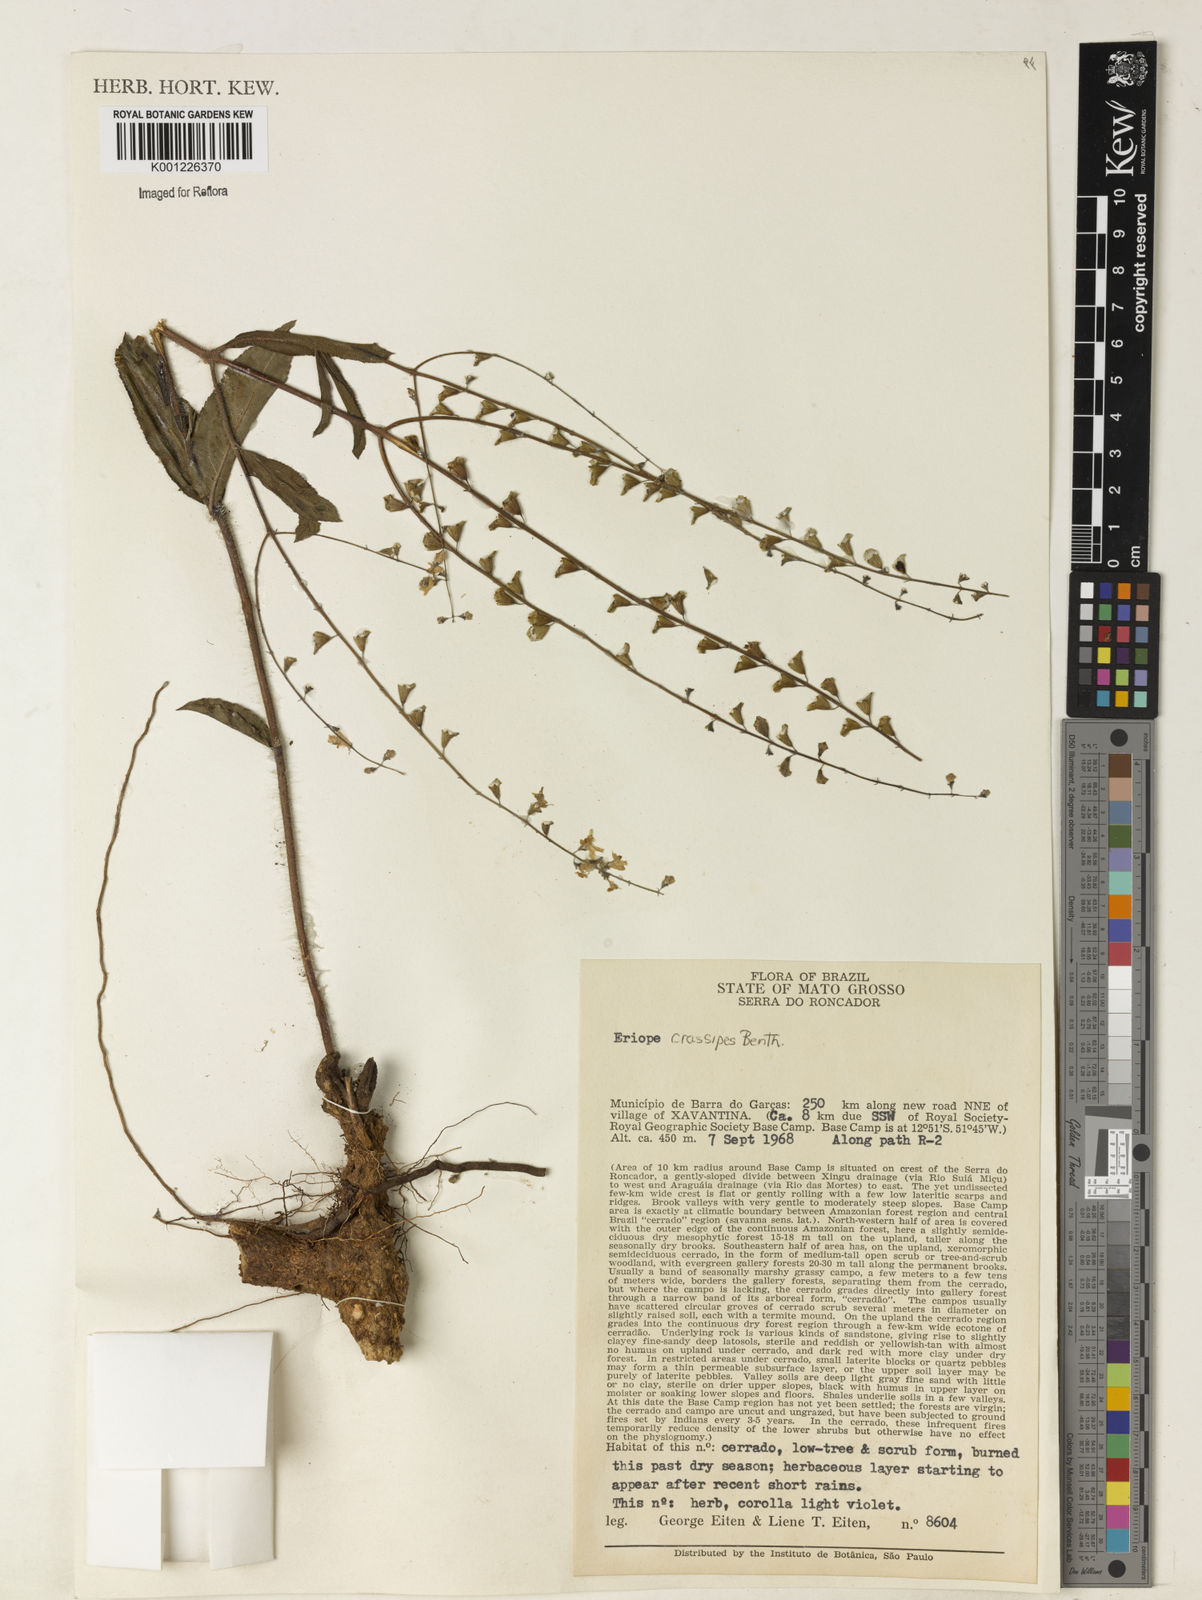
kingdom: Plantae
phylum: Tracheophyta
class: Magnoliopsida
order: Lamiales
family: Lamiaceae
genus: Eriope
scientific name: Eriope crassipes
